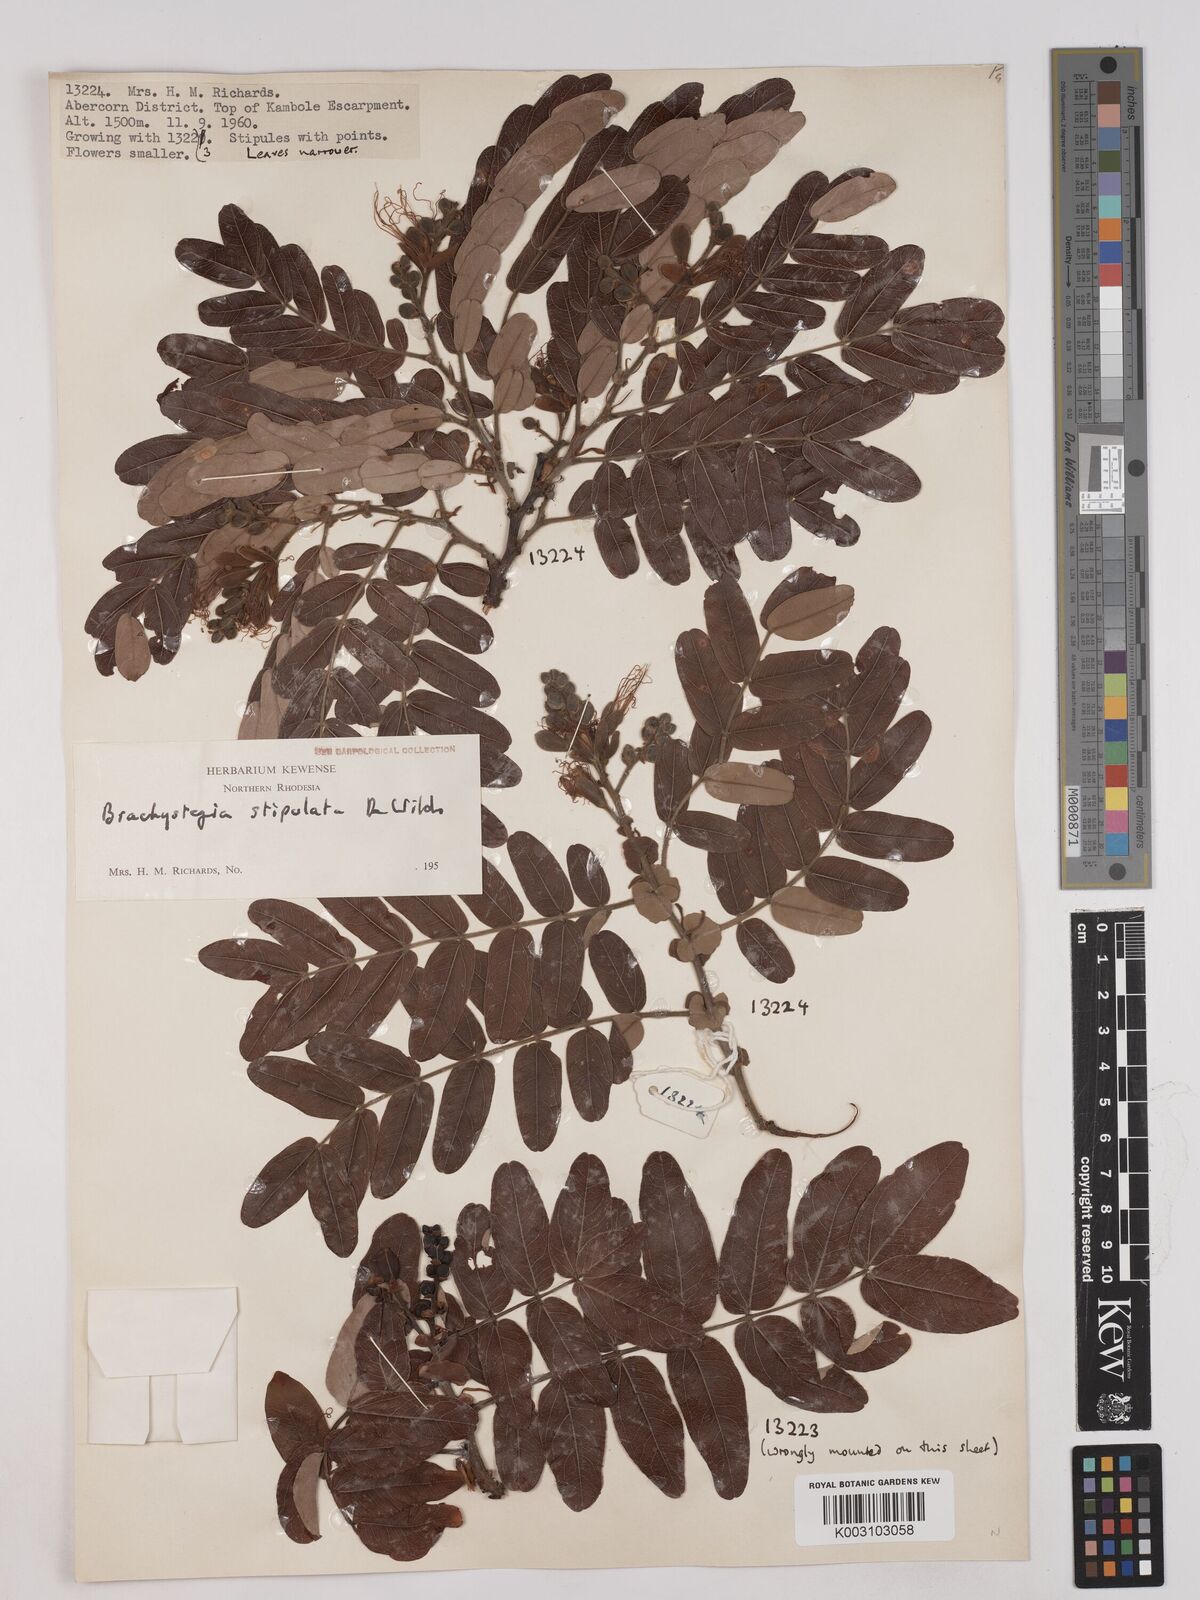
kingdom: Plantae
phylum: Tracheophyta
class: Magnoliopsida
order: Fabales
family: Fabaceae
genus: Brachystegia
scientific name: Brachystegia stipulata
